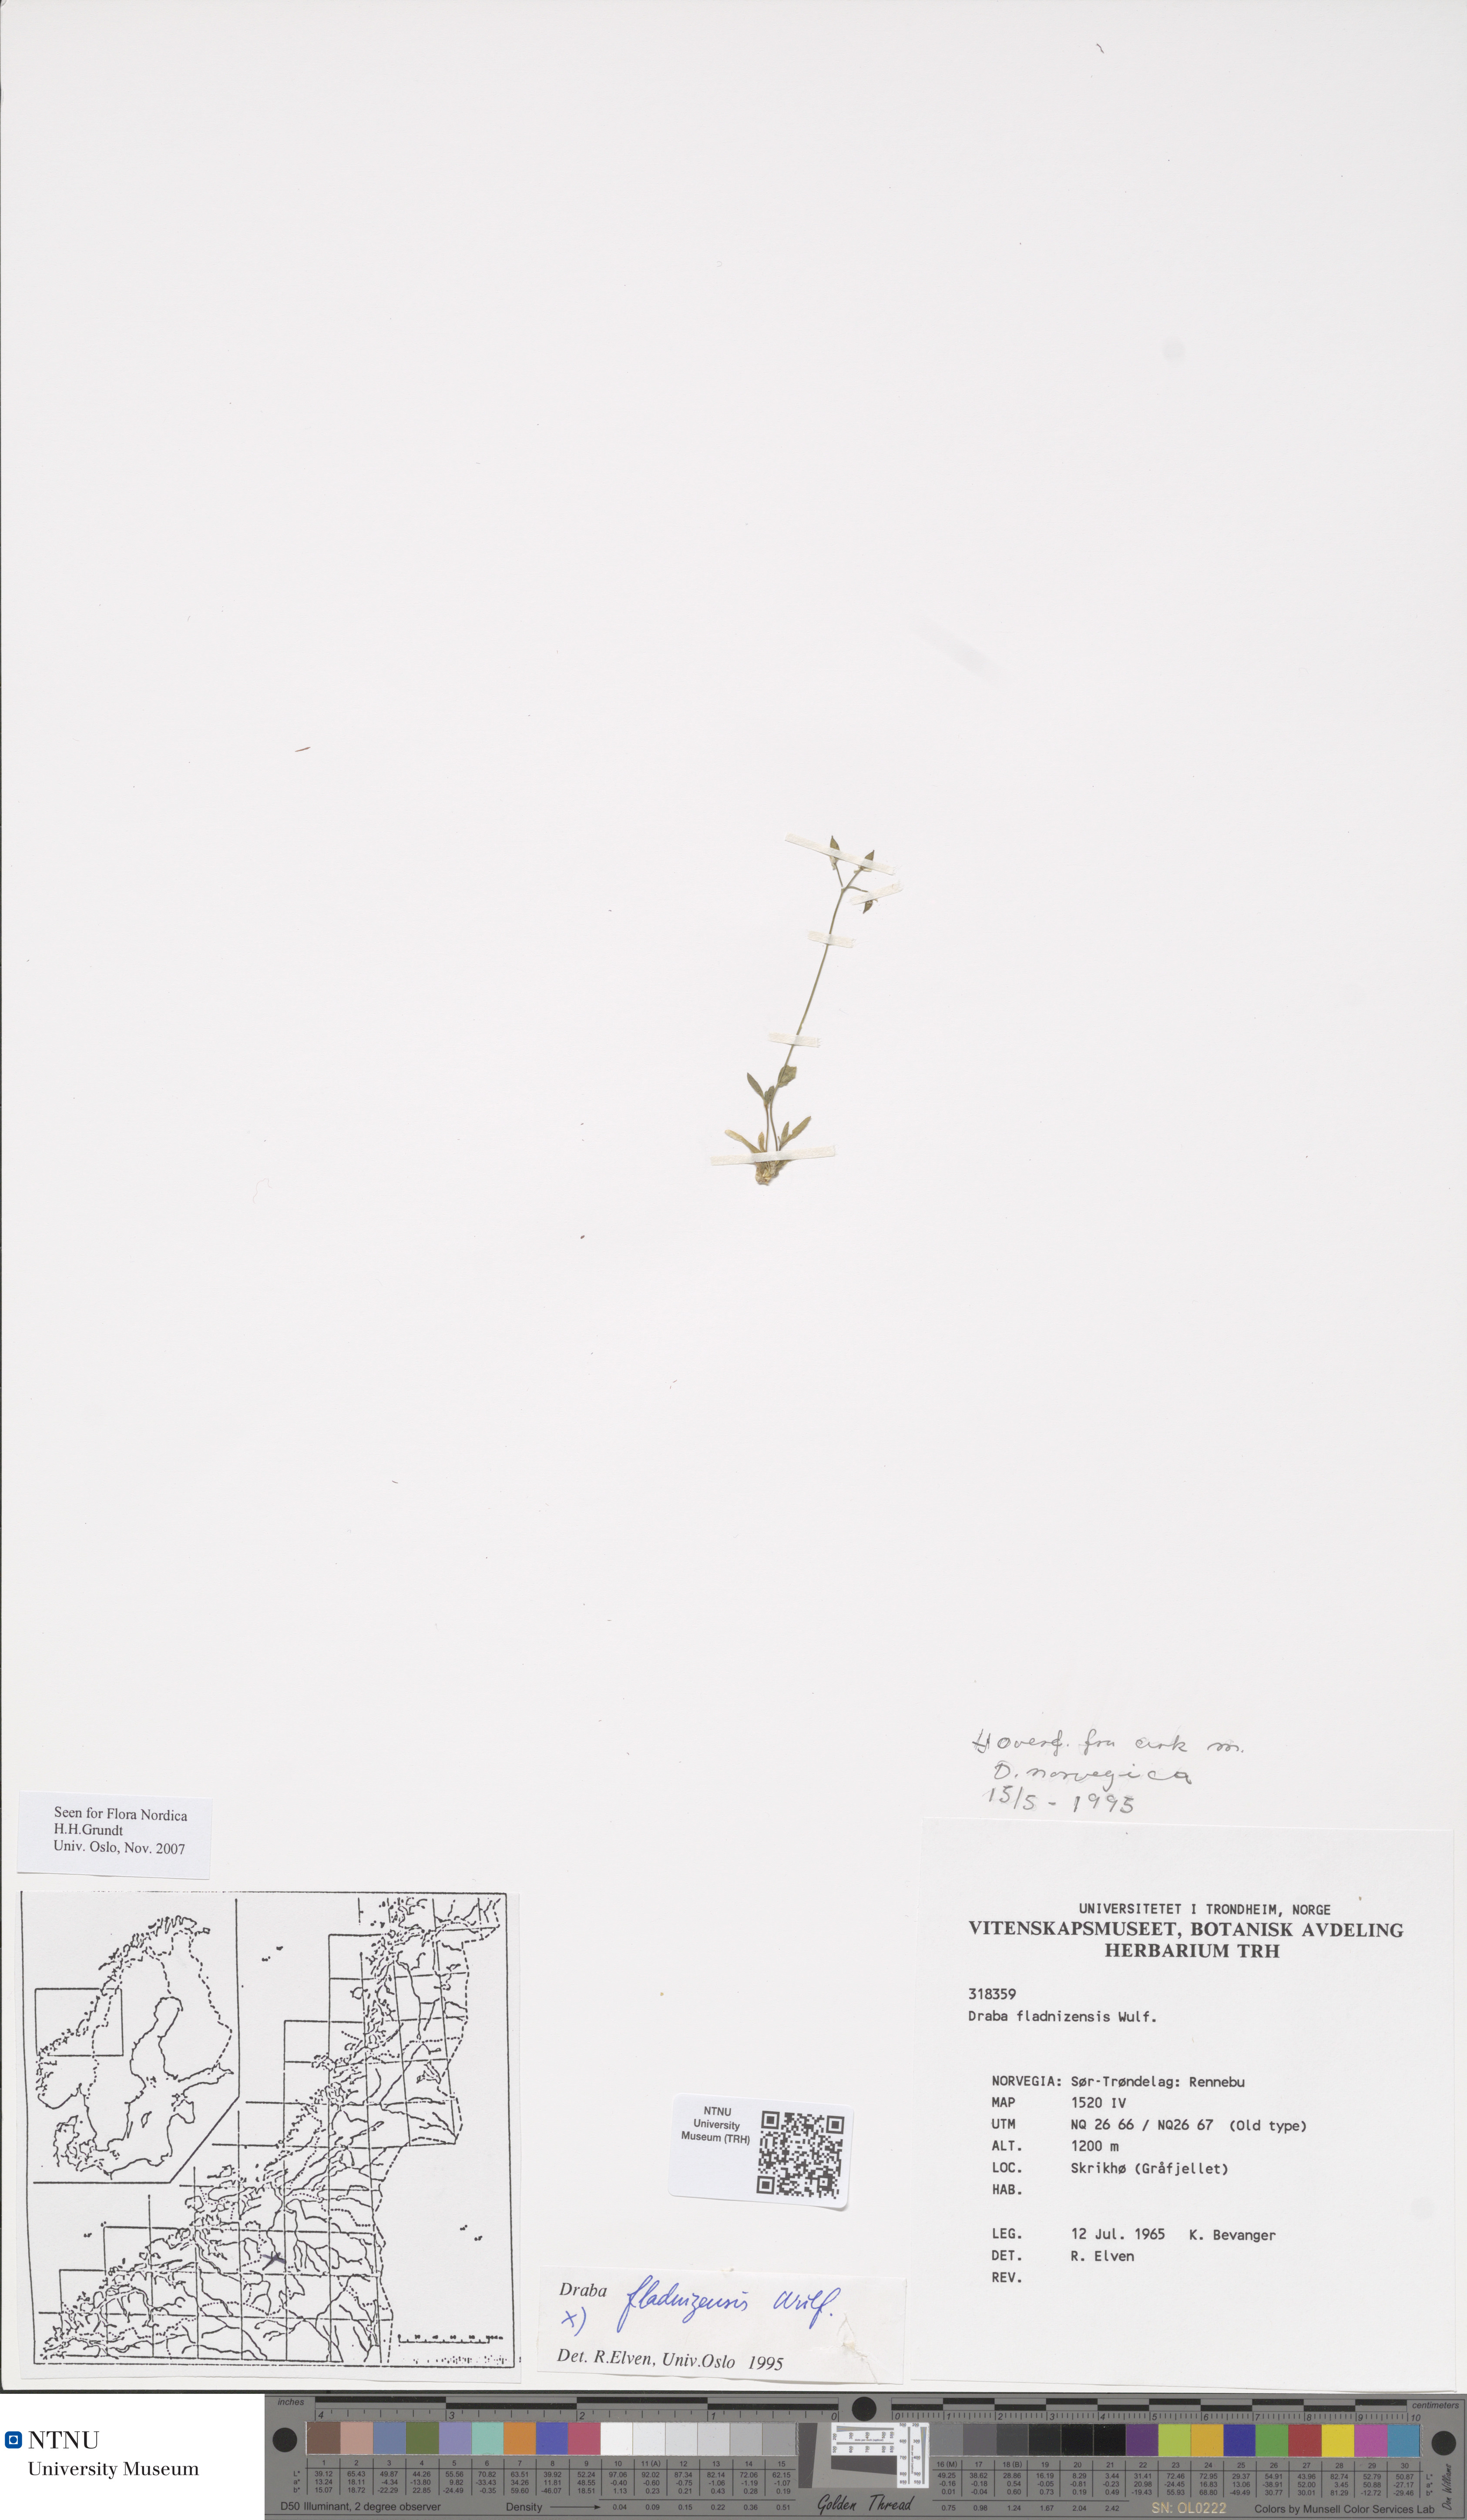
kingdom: Plantae
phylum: Tracheophyta
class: Magnoliopsida
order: Brassicales
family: Brassicaceae
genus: Draba
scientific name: Draba fladnizensis
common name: Austrian draba
